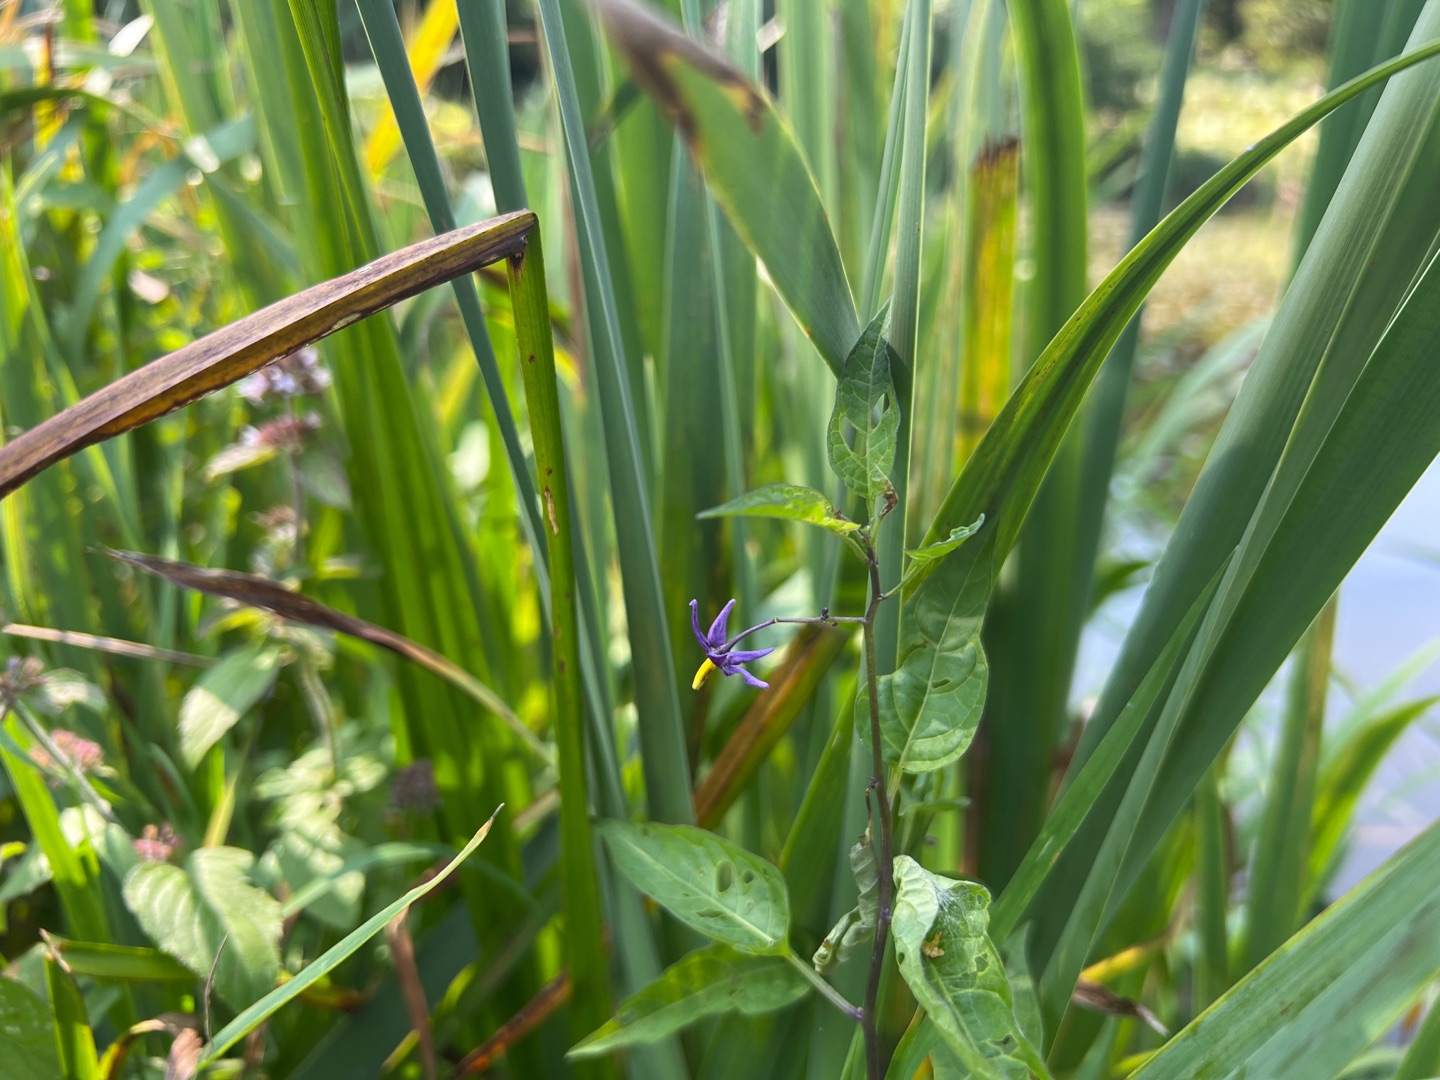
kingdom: Plantae
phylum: Tracheophyta
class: Magnoliopsida
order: Solanales
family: Solanaceae
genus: Solanum
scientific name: Solanum dulcamara
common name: Bittersød natskygge
